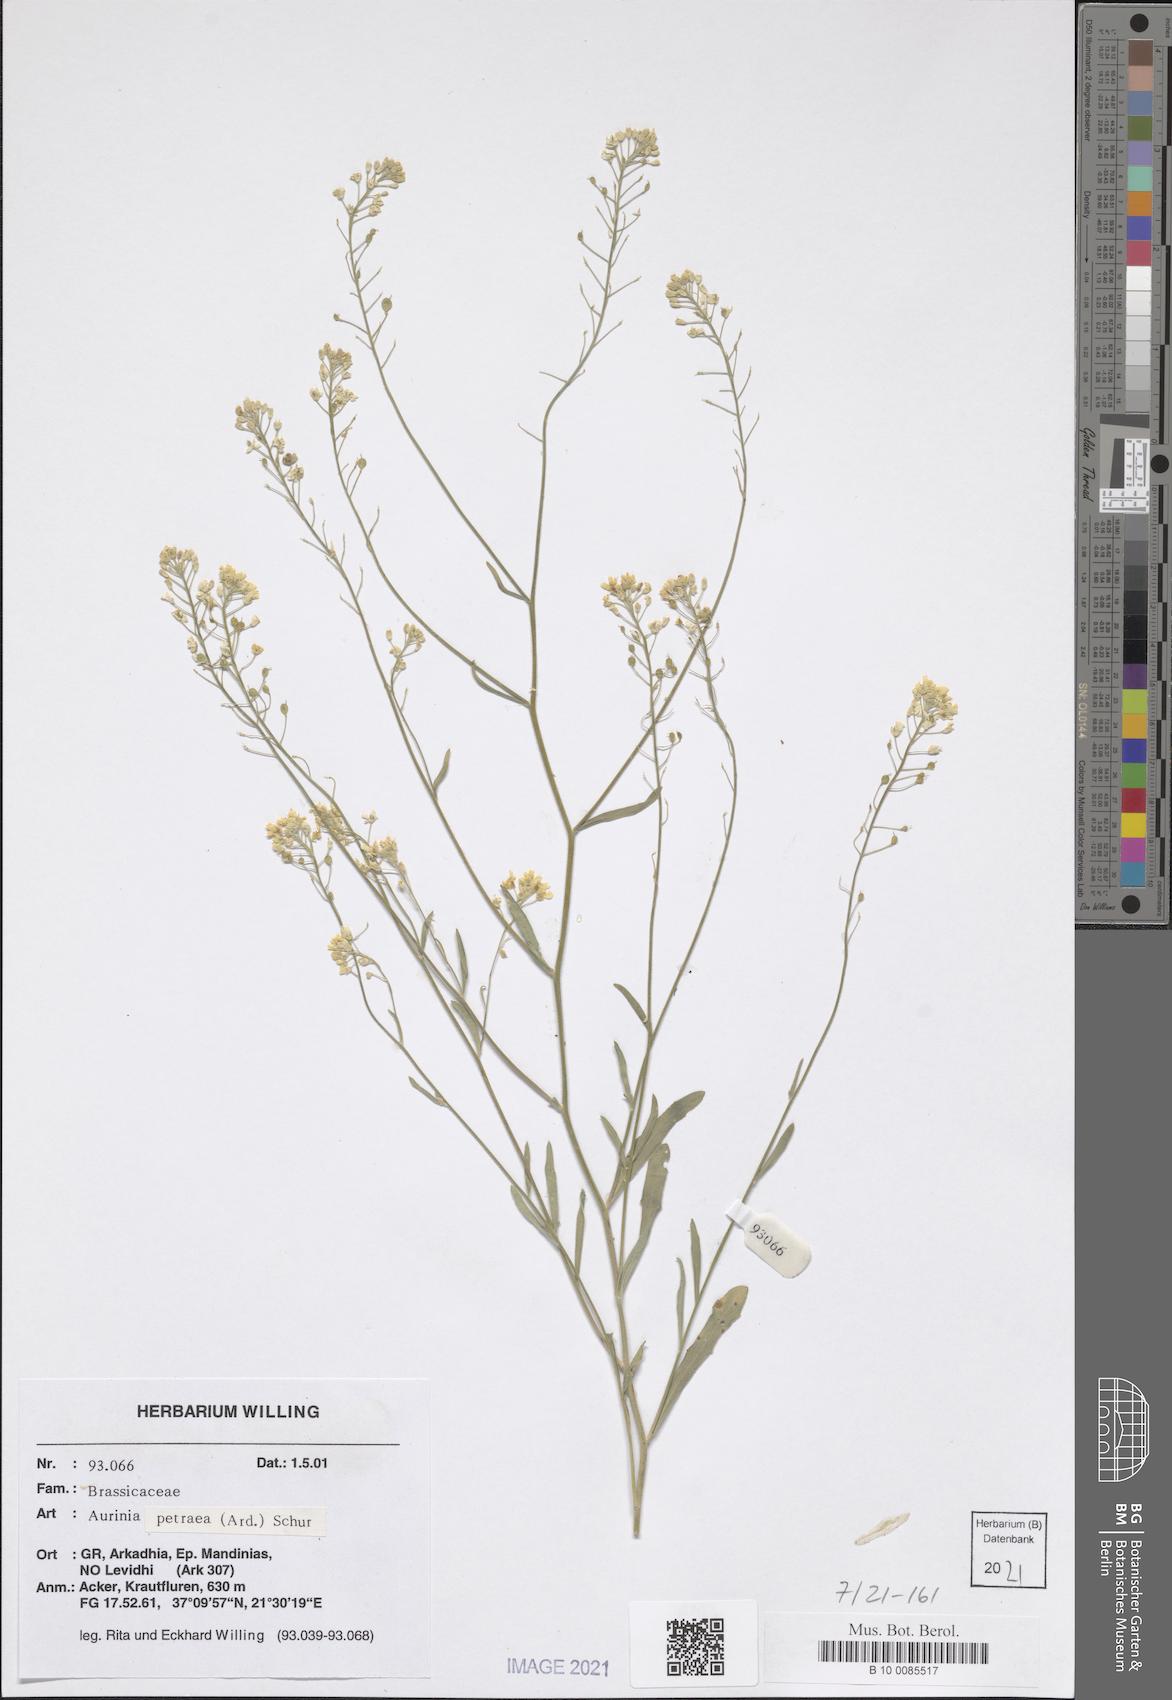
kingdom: Plantae
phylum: Tracheophyta
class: Magnoliopsida
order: Brassicales
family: Brassicaceae
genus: Aurinia
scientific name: Aurinia petraea
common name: Goldentuft
